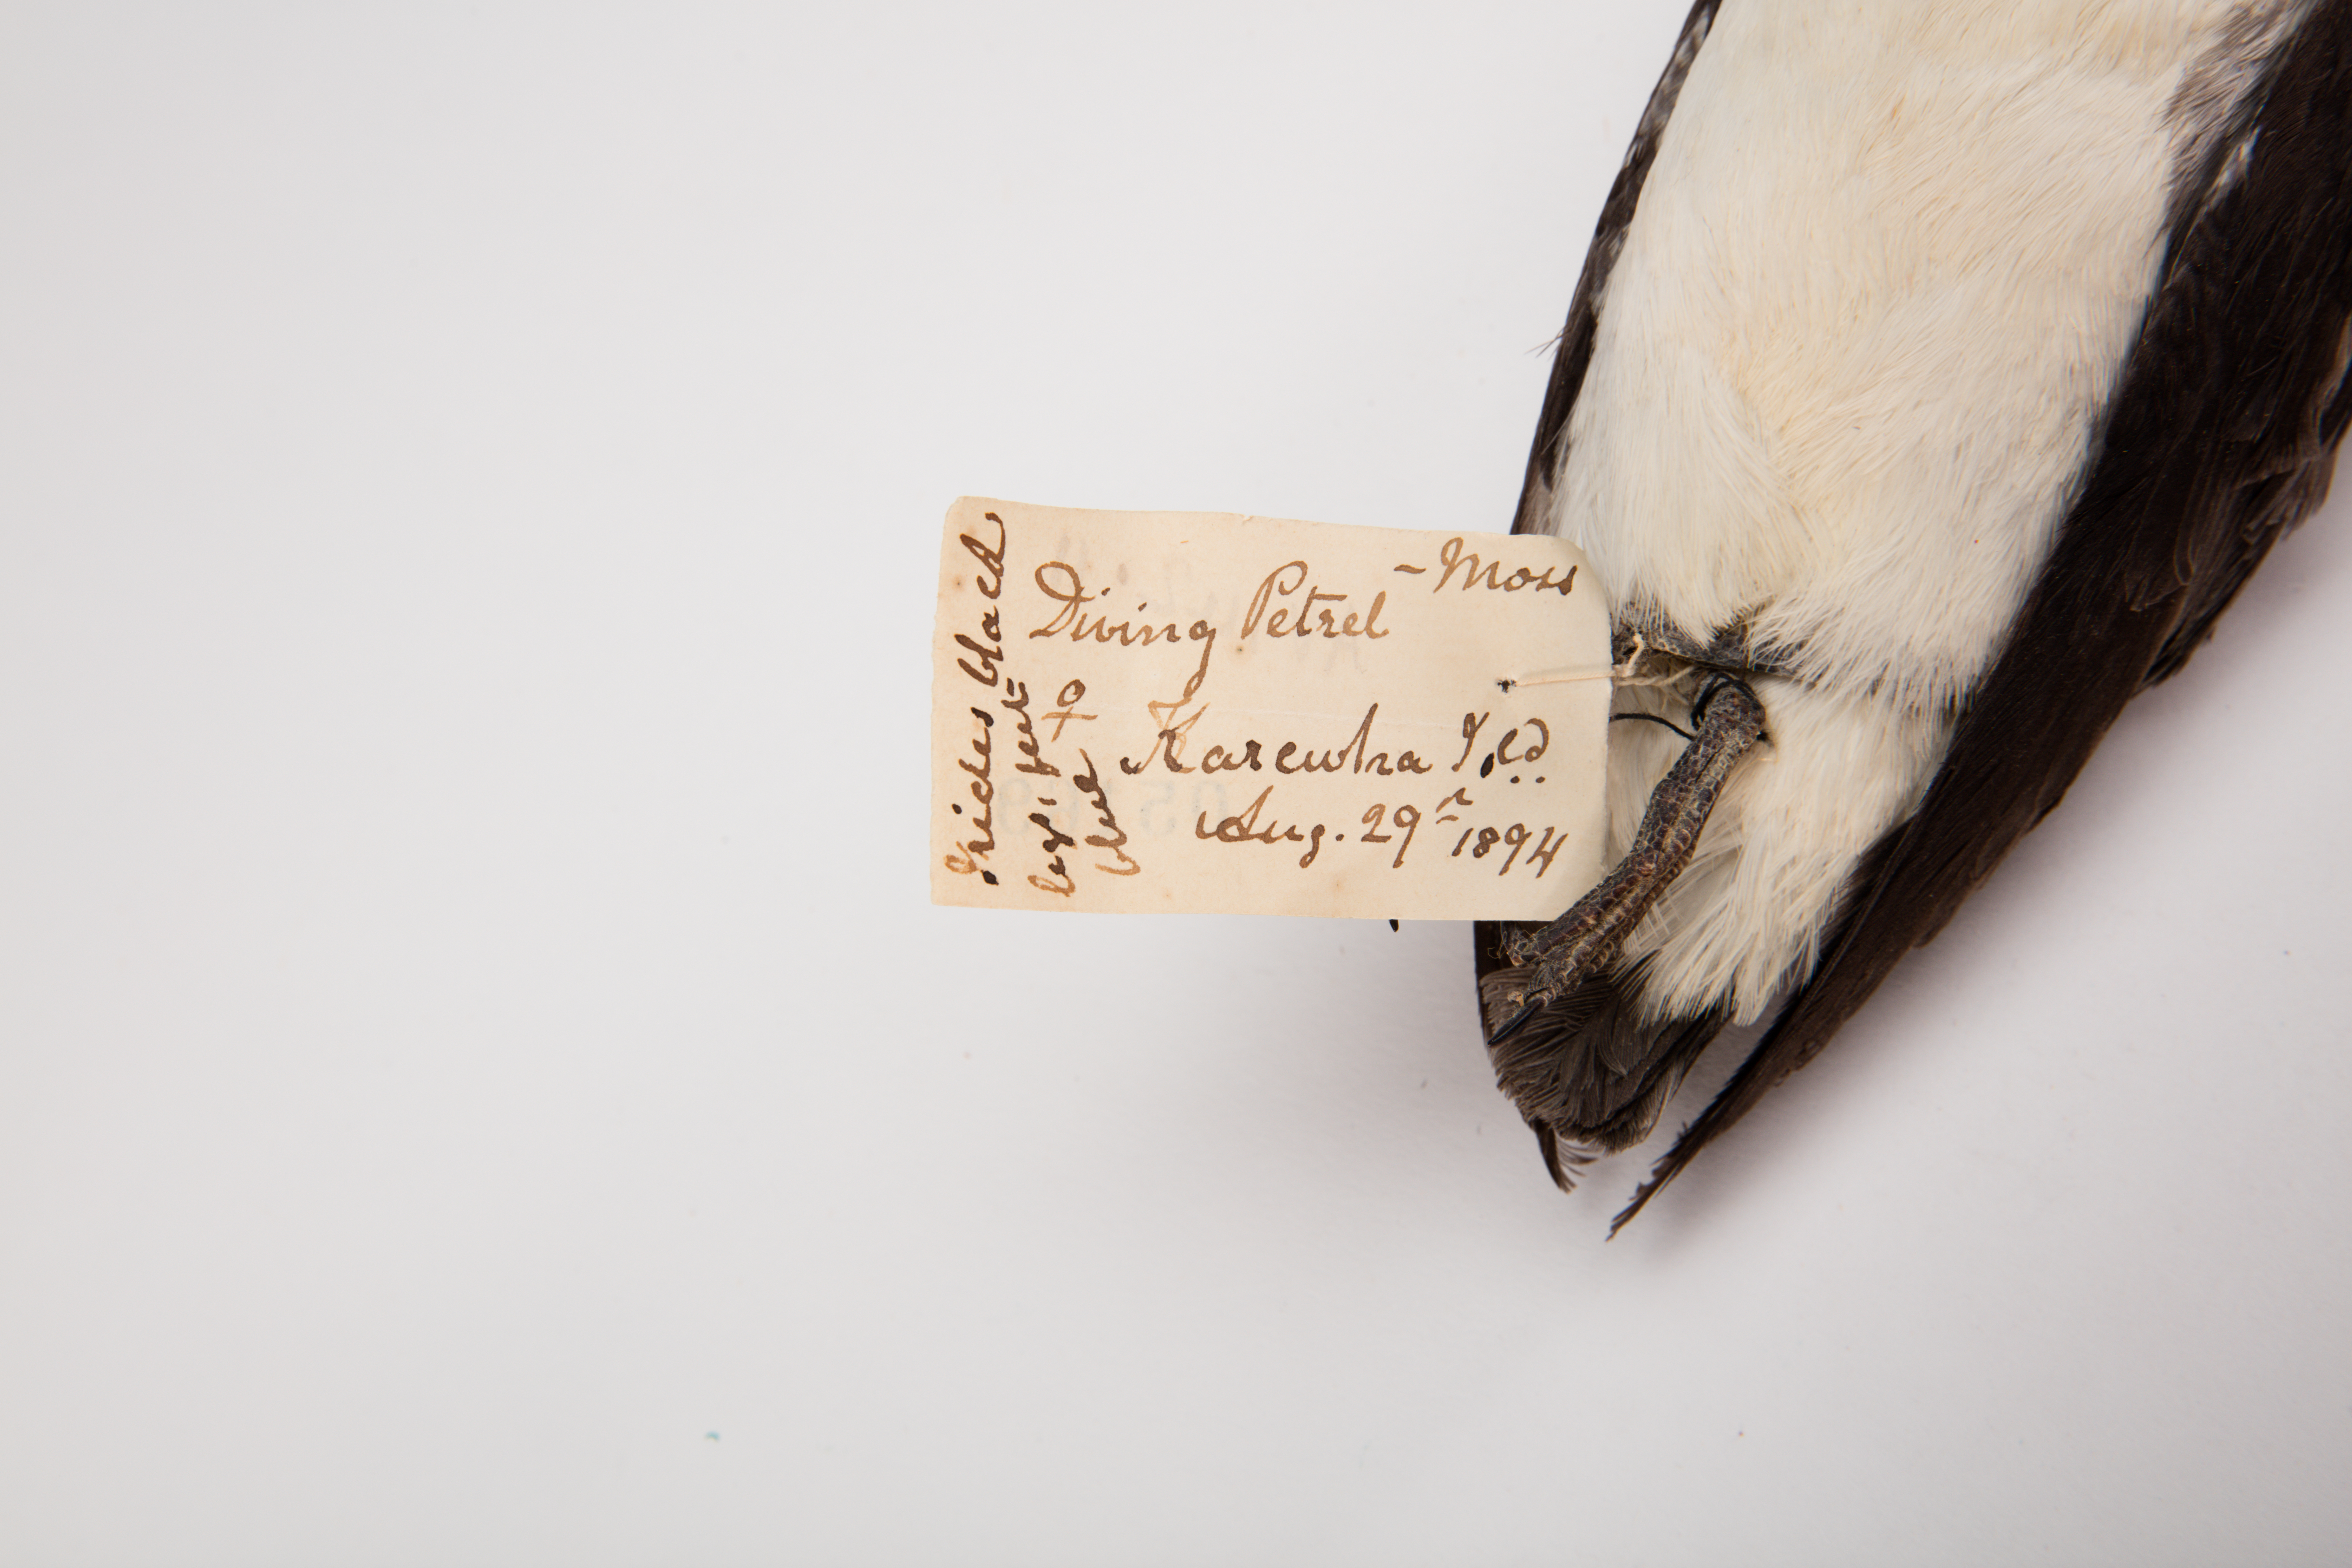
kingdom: Animalia
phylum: Chordata
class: Aves
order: Procellariiformes
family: Pelecanoididae
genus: Pelecanoides
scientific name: Pelecanoides urinatrix
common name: Common diving-petrel
